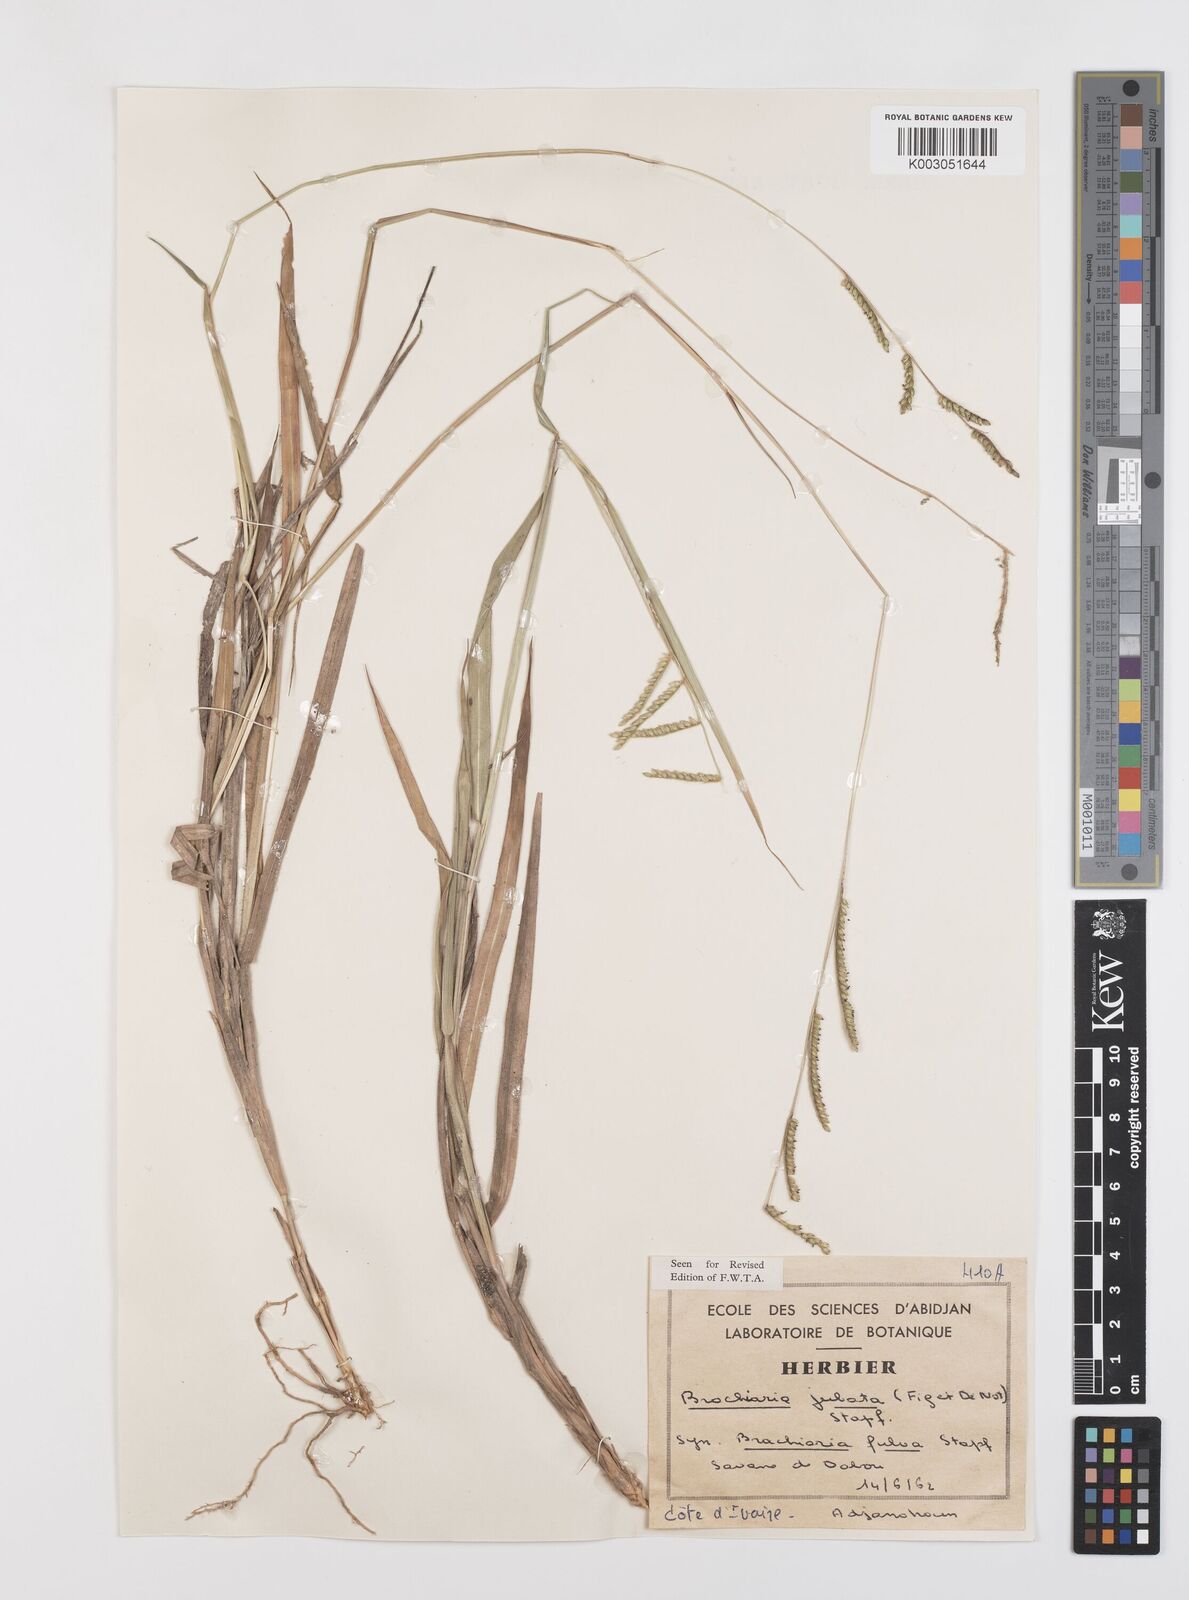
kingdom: Plantae
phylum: Tracheophyta
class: Liliopsida
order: Poales
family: Poaceae
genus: Urochloa
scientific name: Urochloa jubata
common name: Buffalograss
